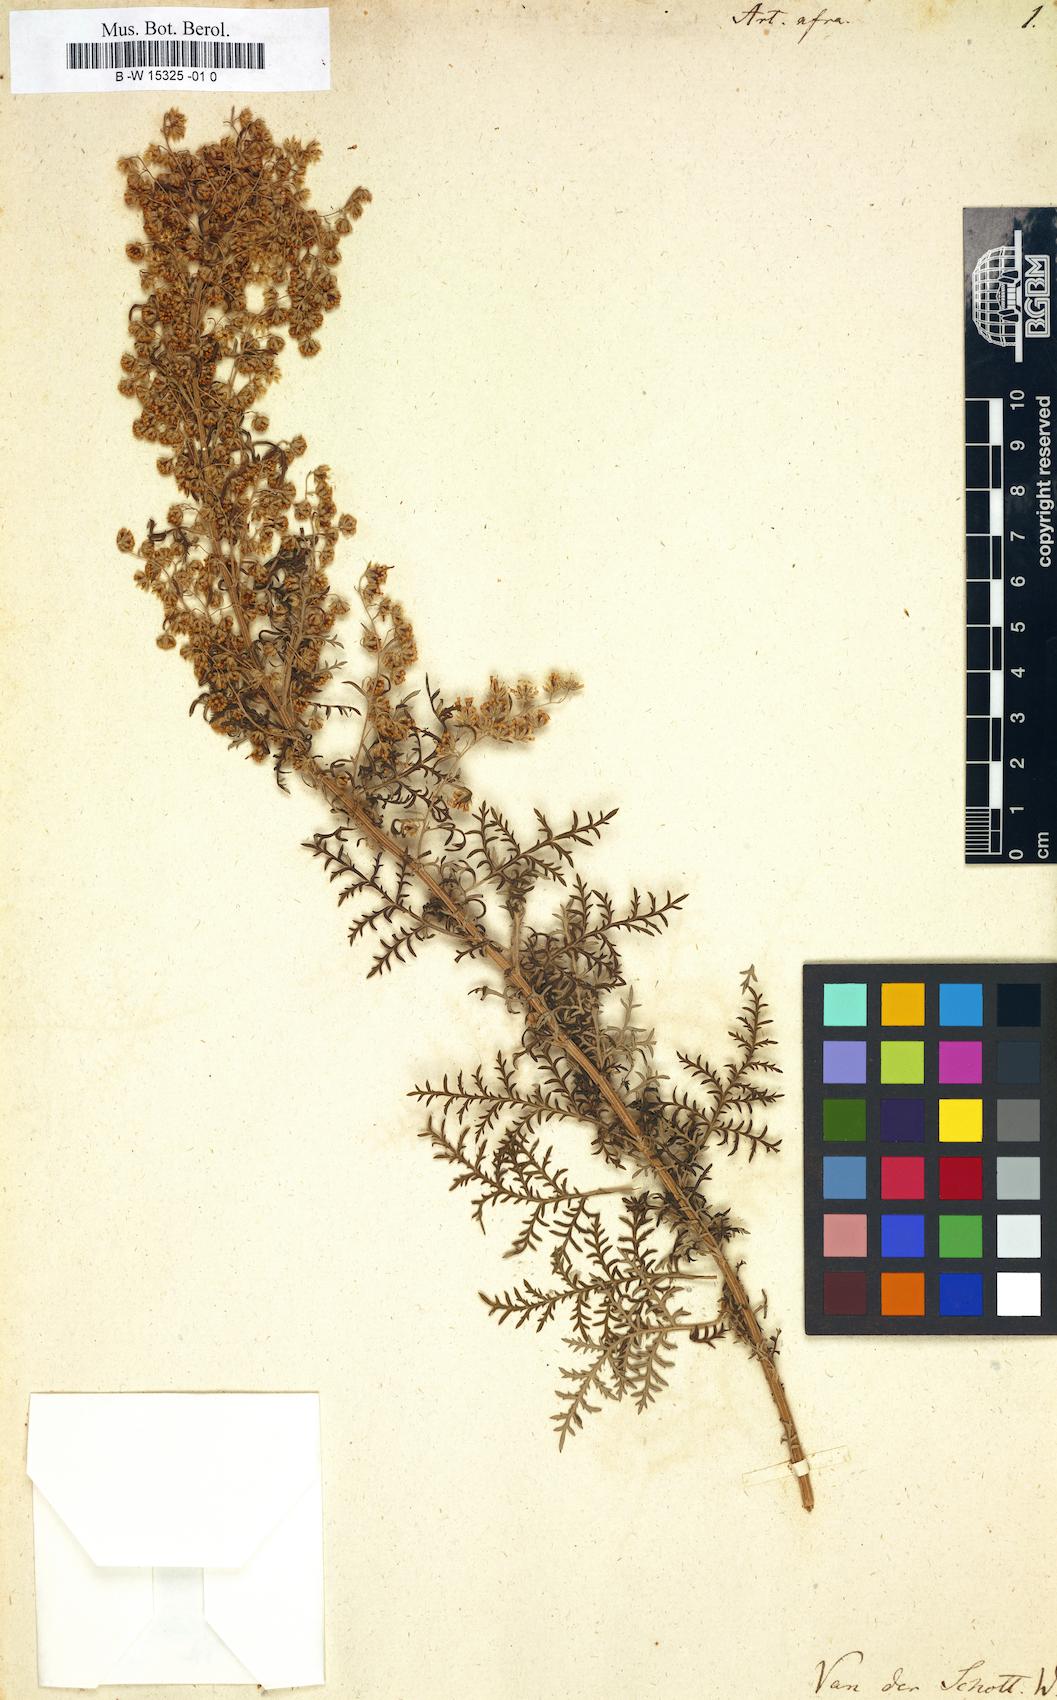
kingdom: Plantae
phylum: Tracheophyta
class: Magnoliopsida
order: Asterales
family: Asteraceae
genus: Artemisia
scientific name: Artemisia afra
